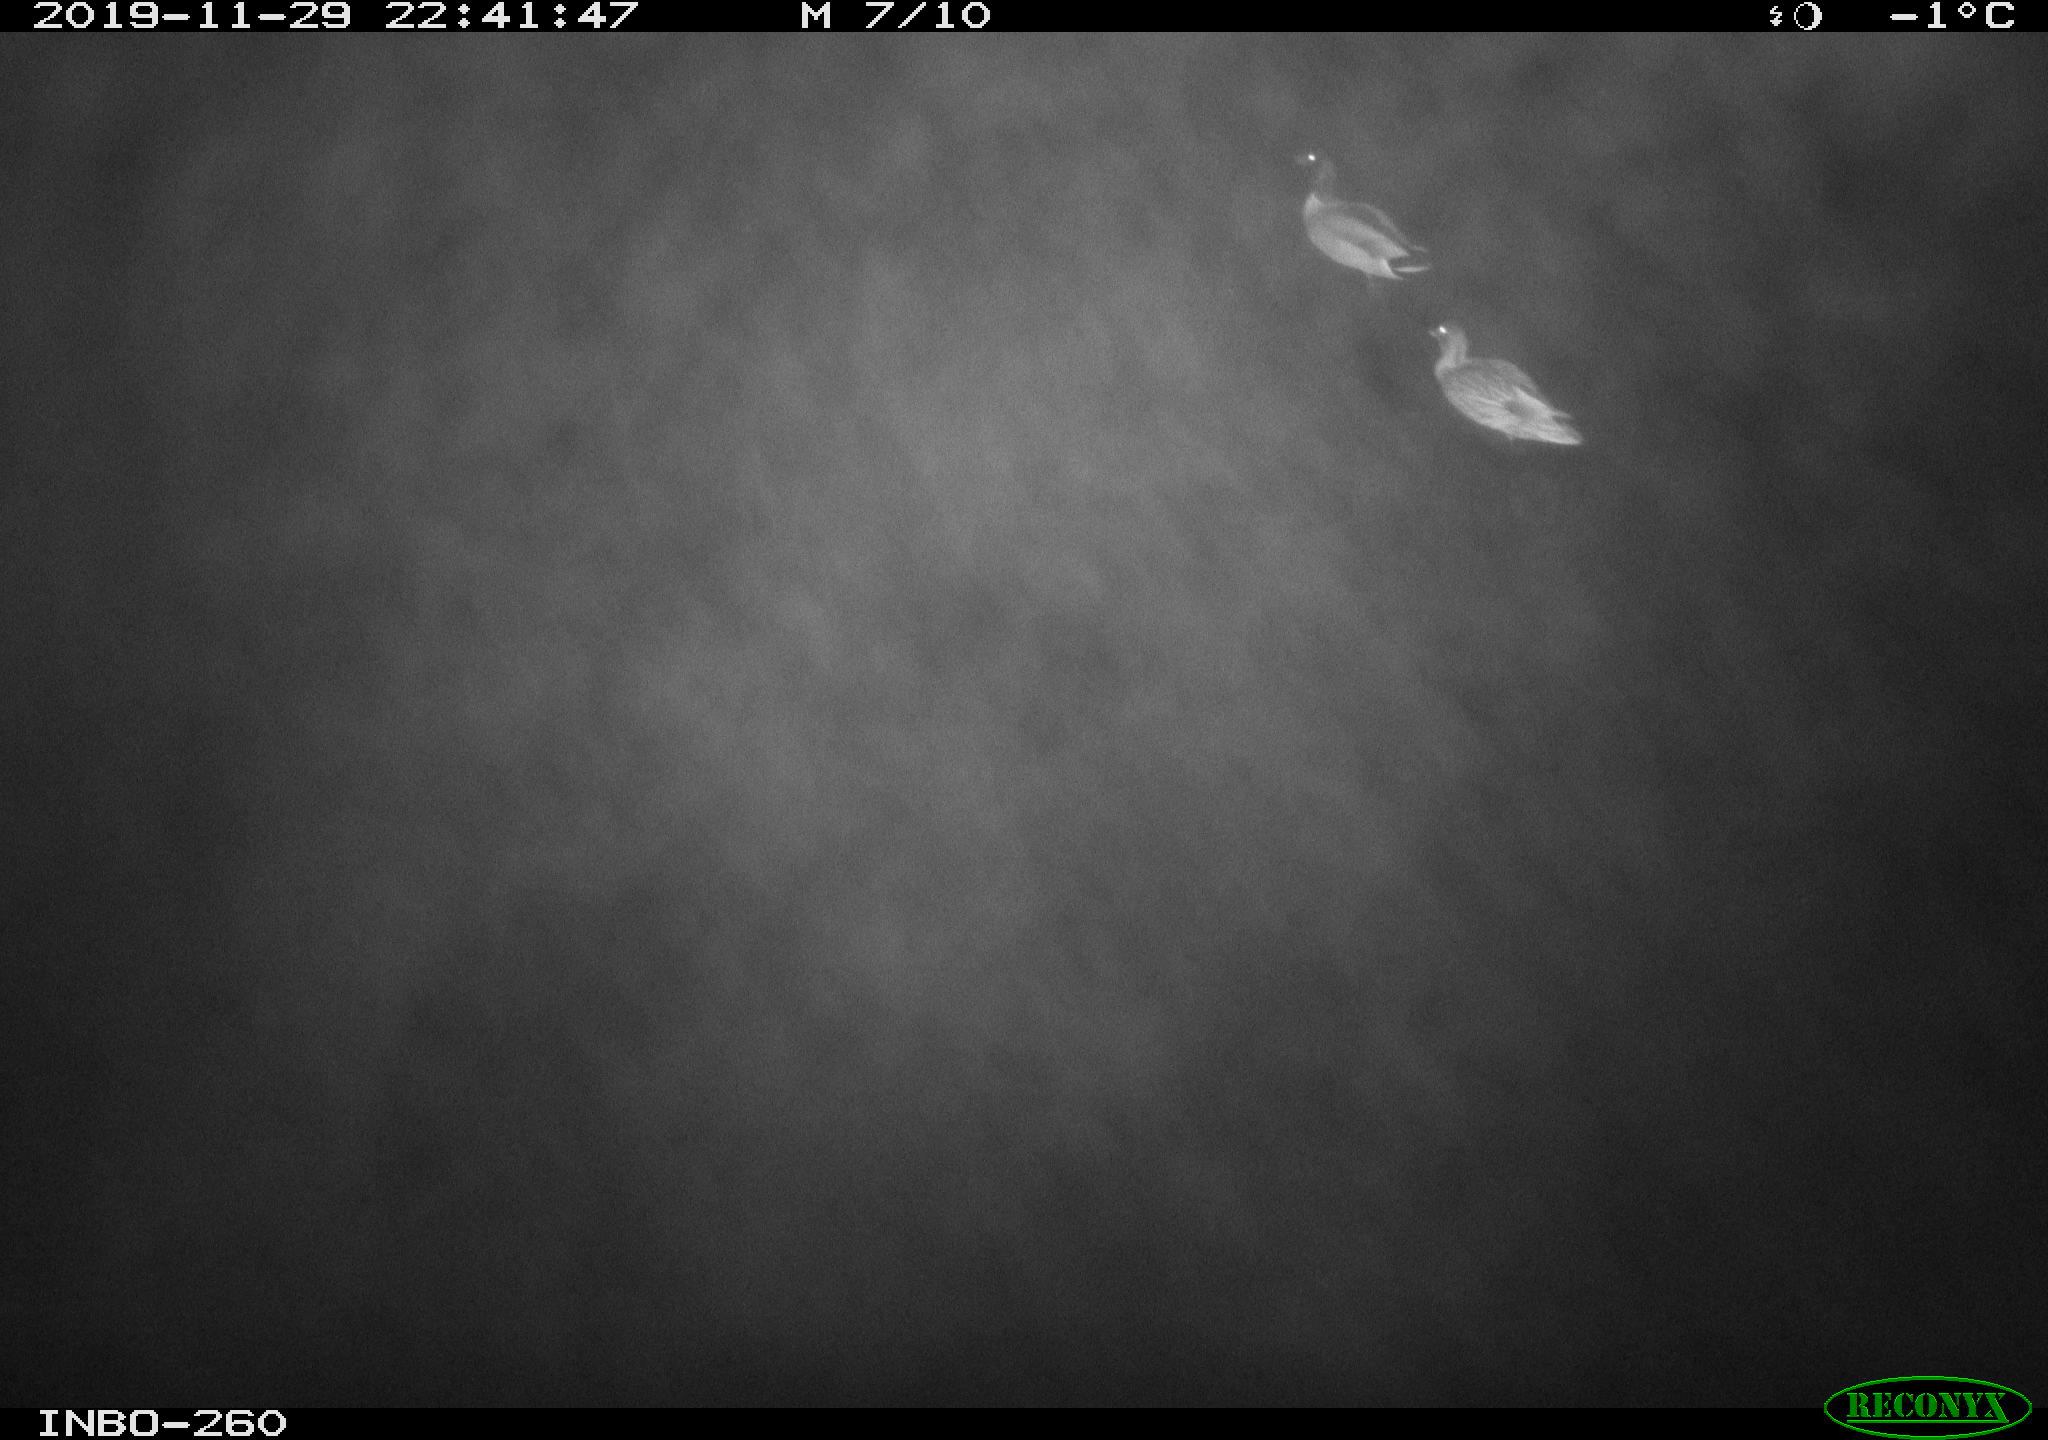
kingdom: Animalia
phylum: Chordata
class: Aves
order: Anseriformes
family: Anatidae
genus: Anas
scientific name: Anas platyrhynchos
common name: Mallard
